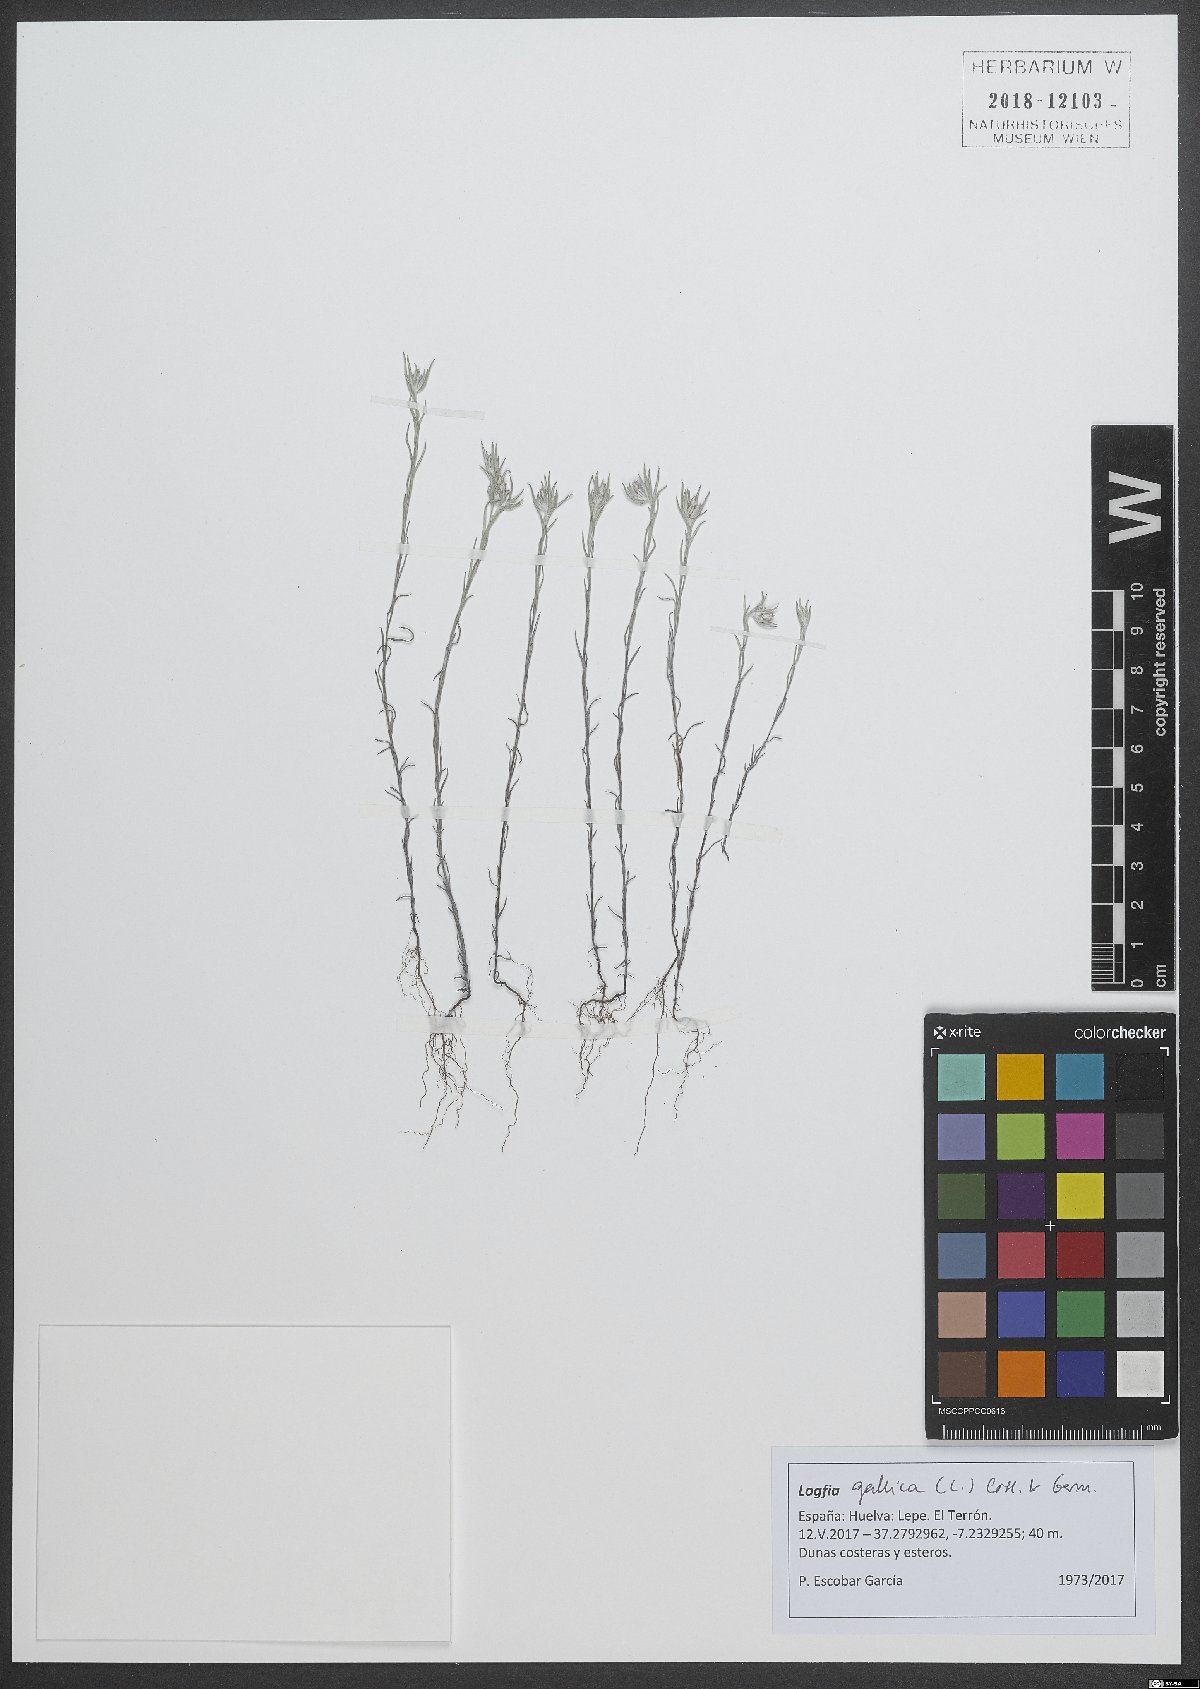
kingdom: Plantae
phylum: Tracheophyta
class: Magnoliopsida
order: Asterales
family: Asteraceae
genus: Logfia
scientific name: Logfia gallica
